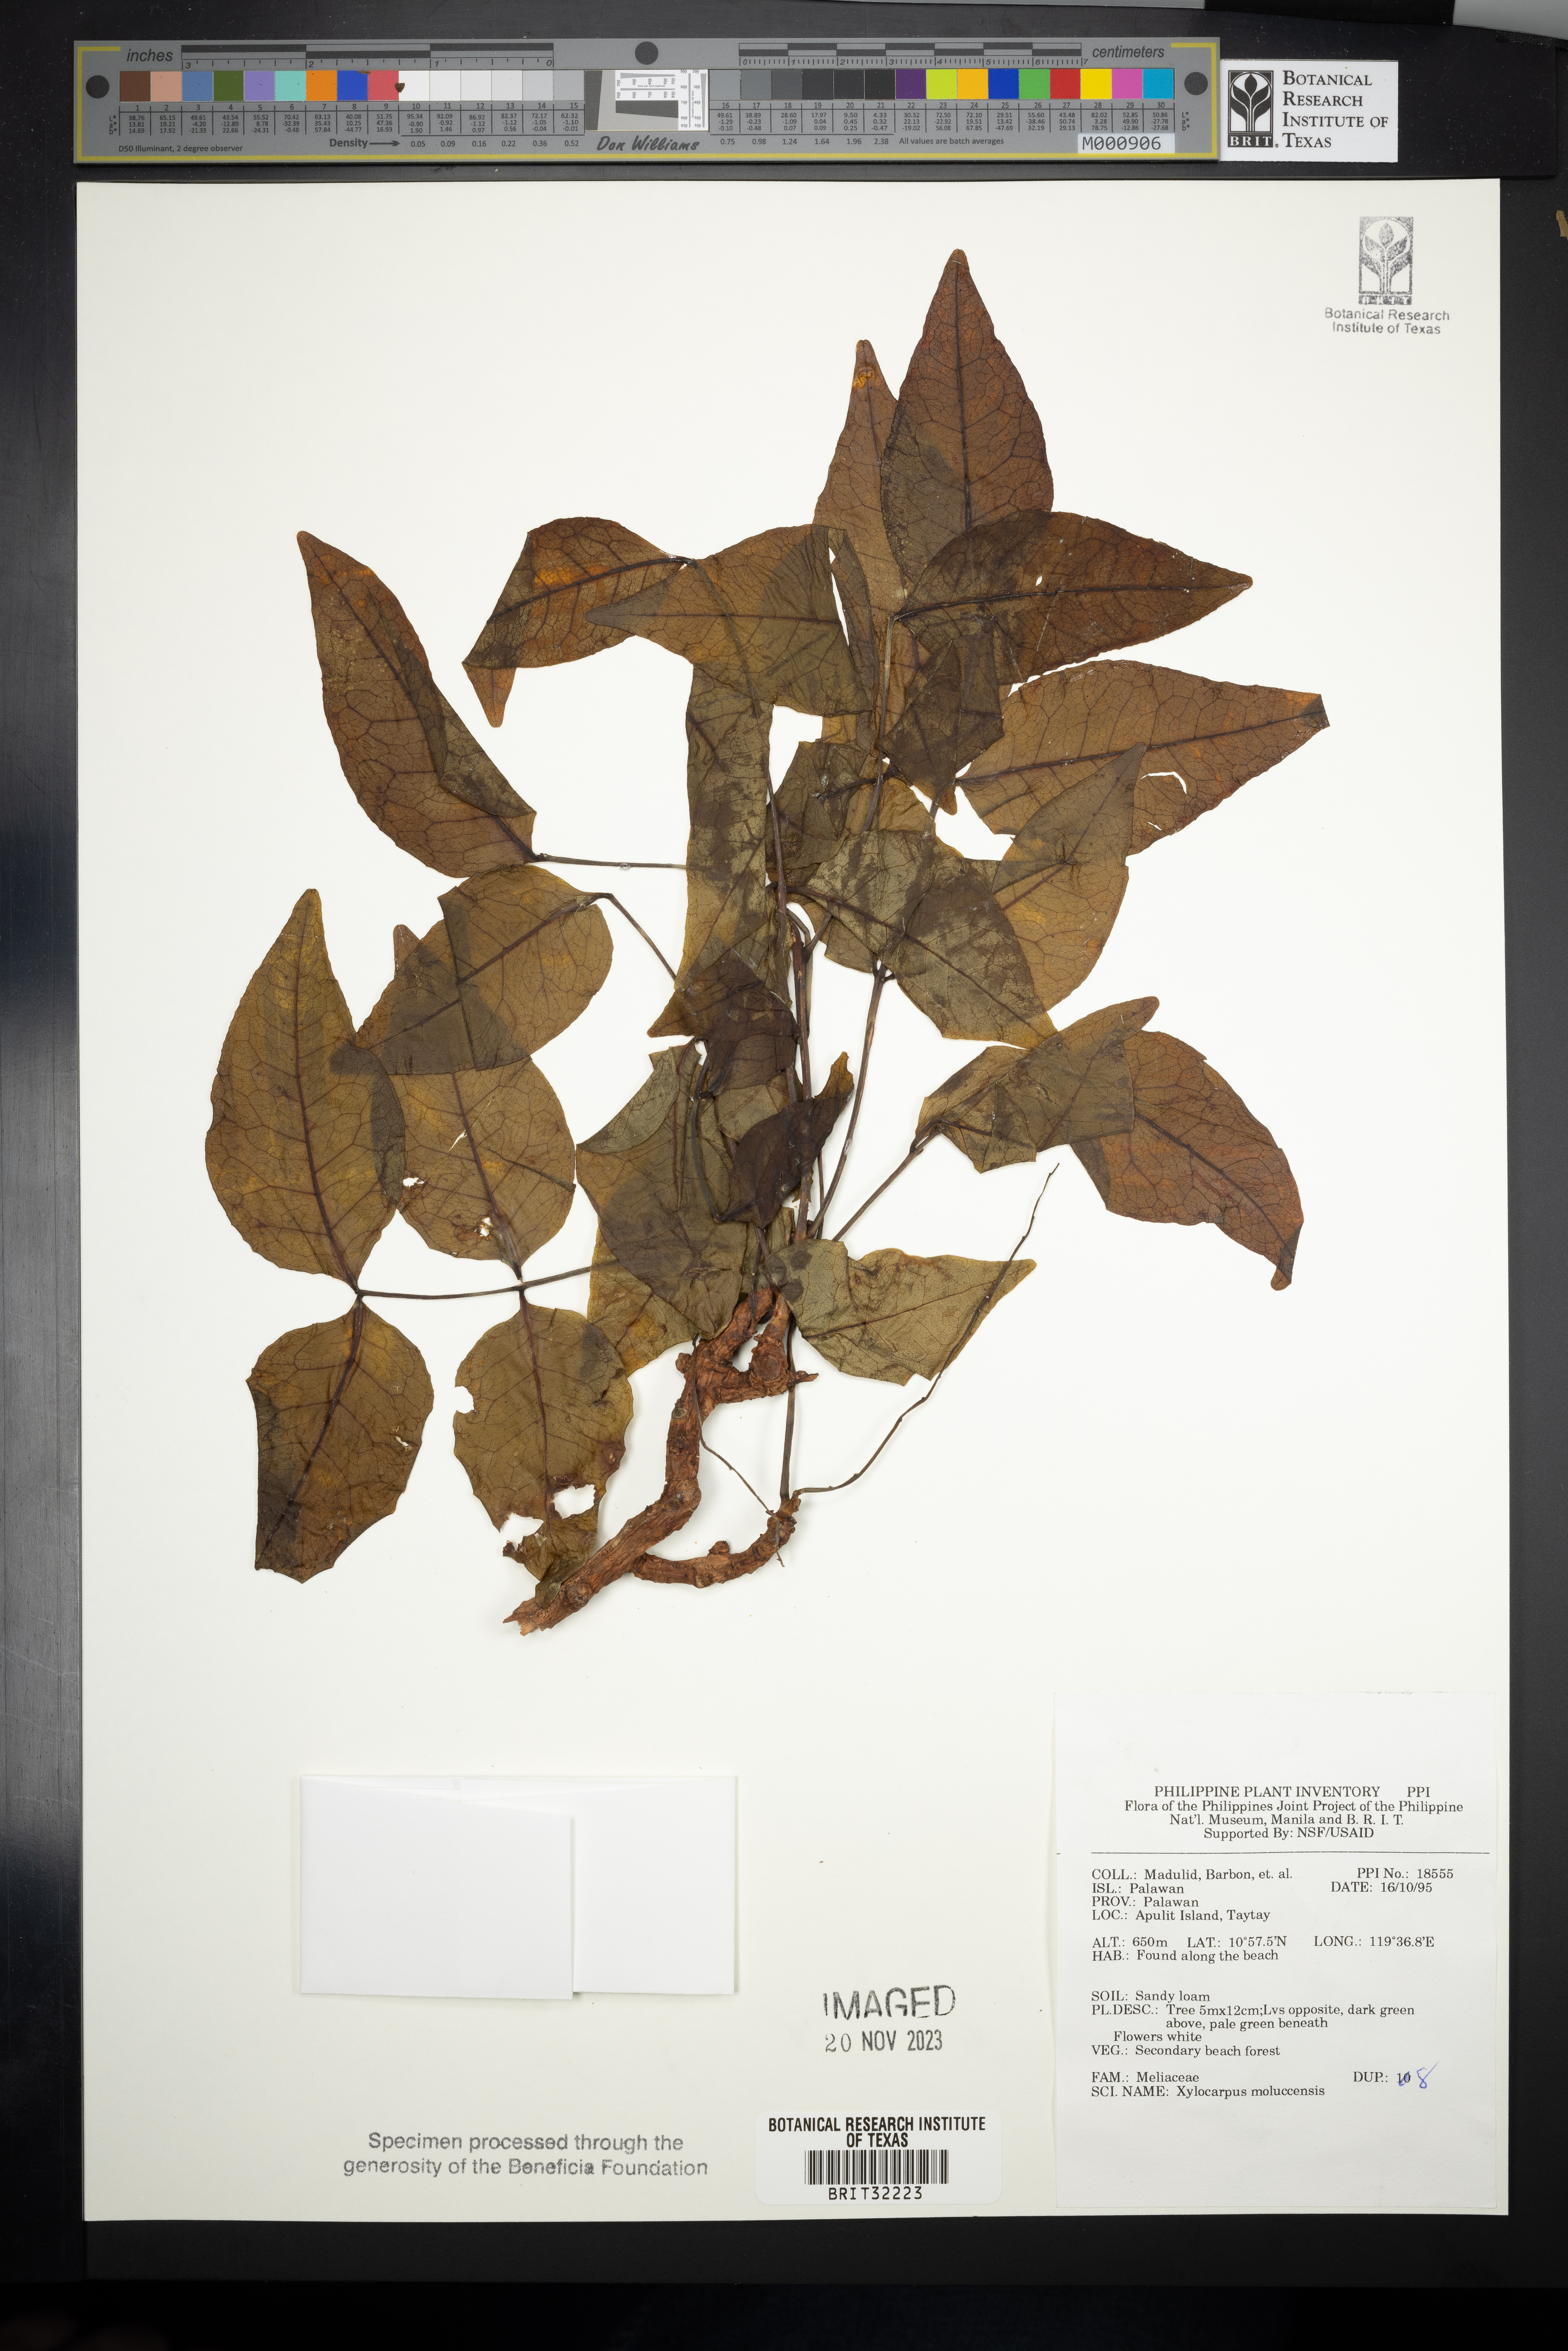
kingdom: Plantae
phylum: Tracheophyta
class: Magnoliopsida
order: Sapindales
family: Meliaceae
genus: Xylocarpus
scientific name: Xylocarpus moluccensis
